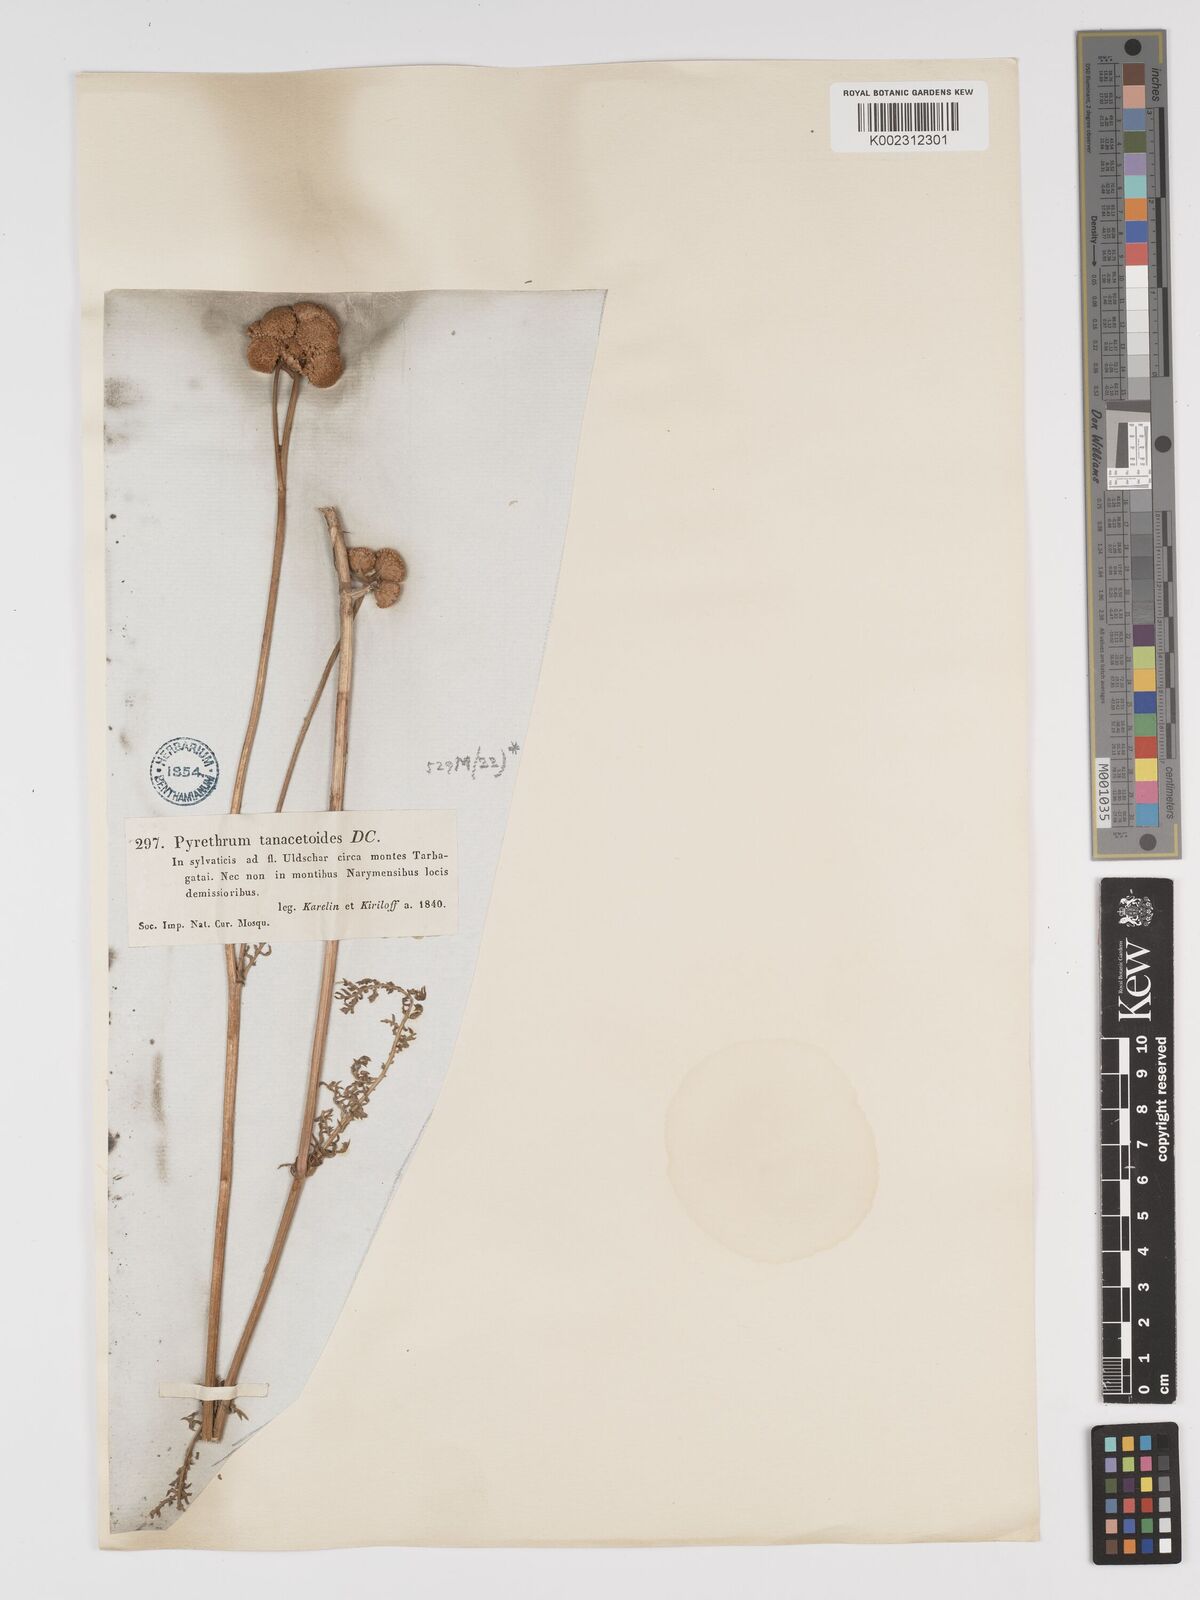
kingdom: Plantae
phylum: Tracheophyta
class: Magnoliopsida
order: Asterales
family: Asteraceae
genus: Tanacetum
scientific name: Tanacetum tanacetoides
